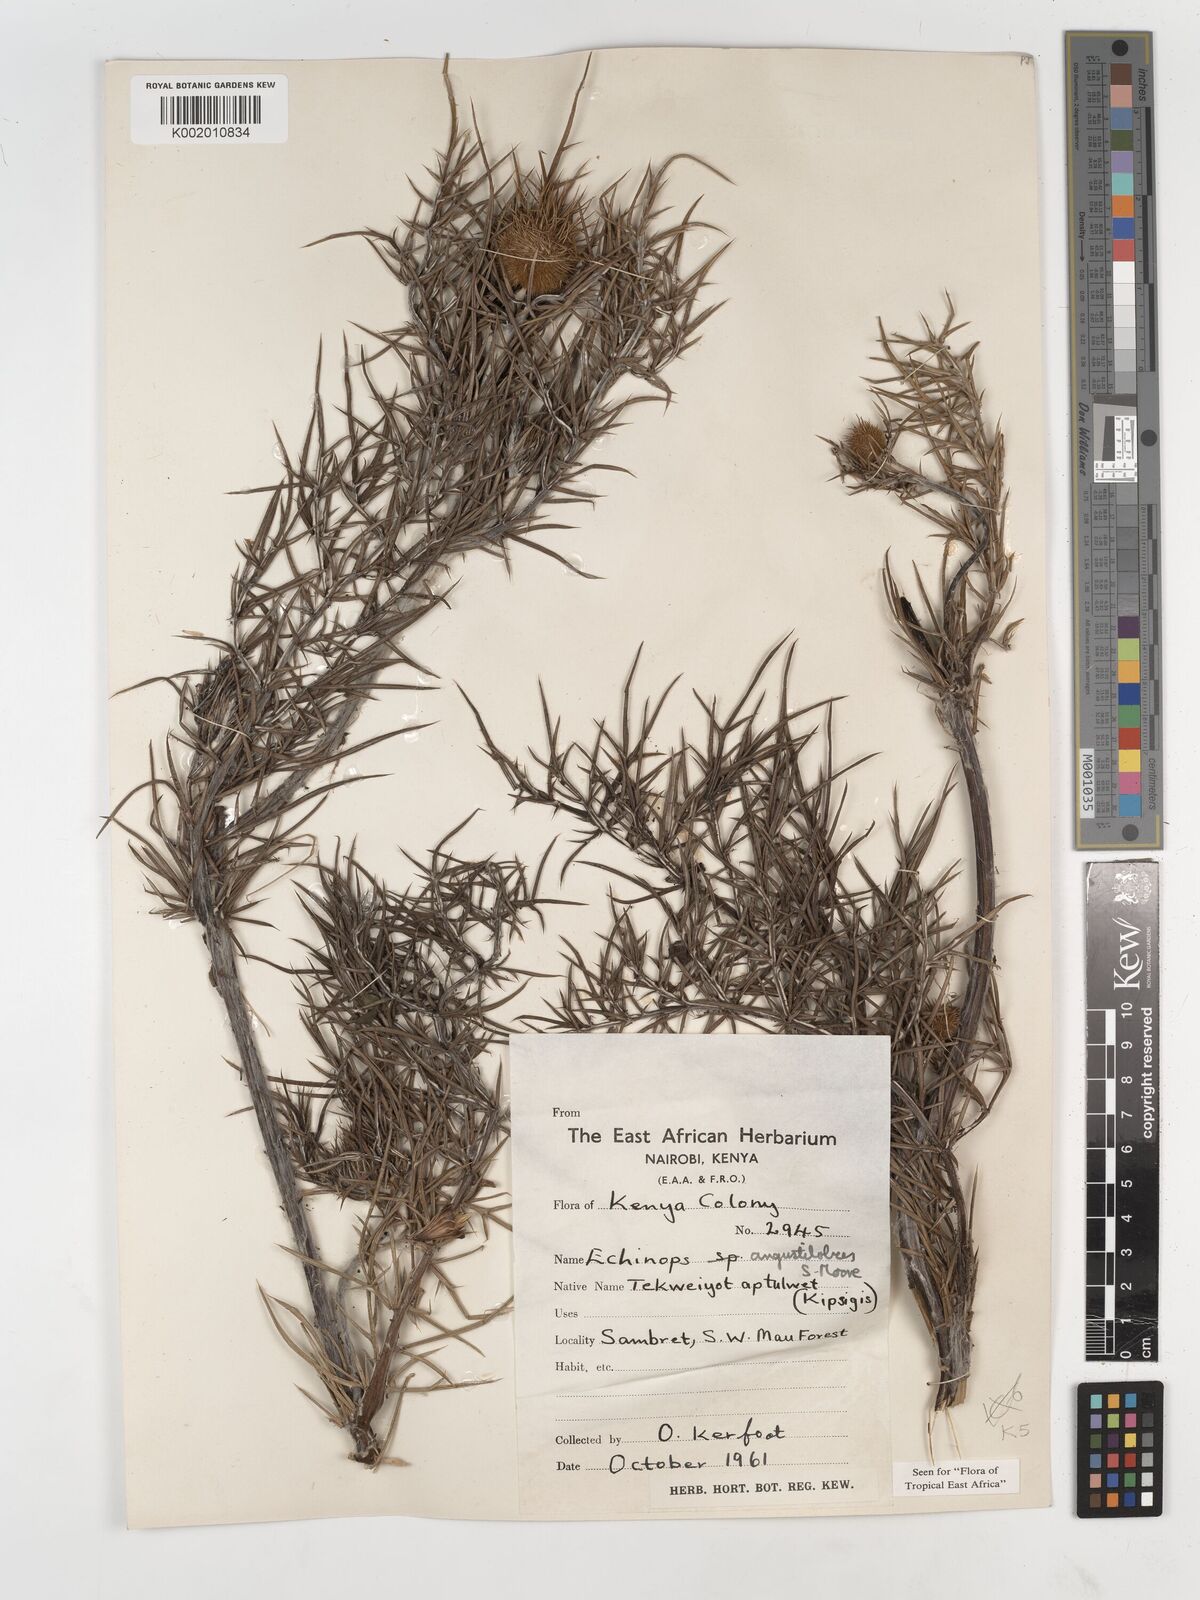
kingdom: Plantae
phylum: Tracheophyta
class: Magnoliopsida
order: Asterales
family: Asteraceae
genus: Echinops
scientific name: Echinops angustilobus
